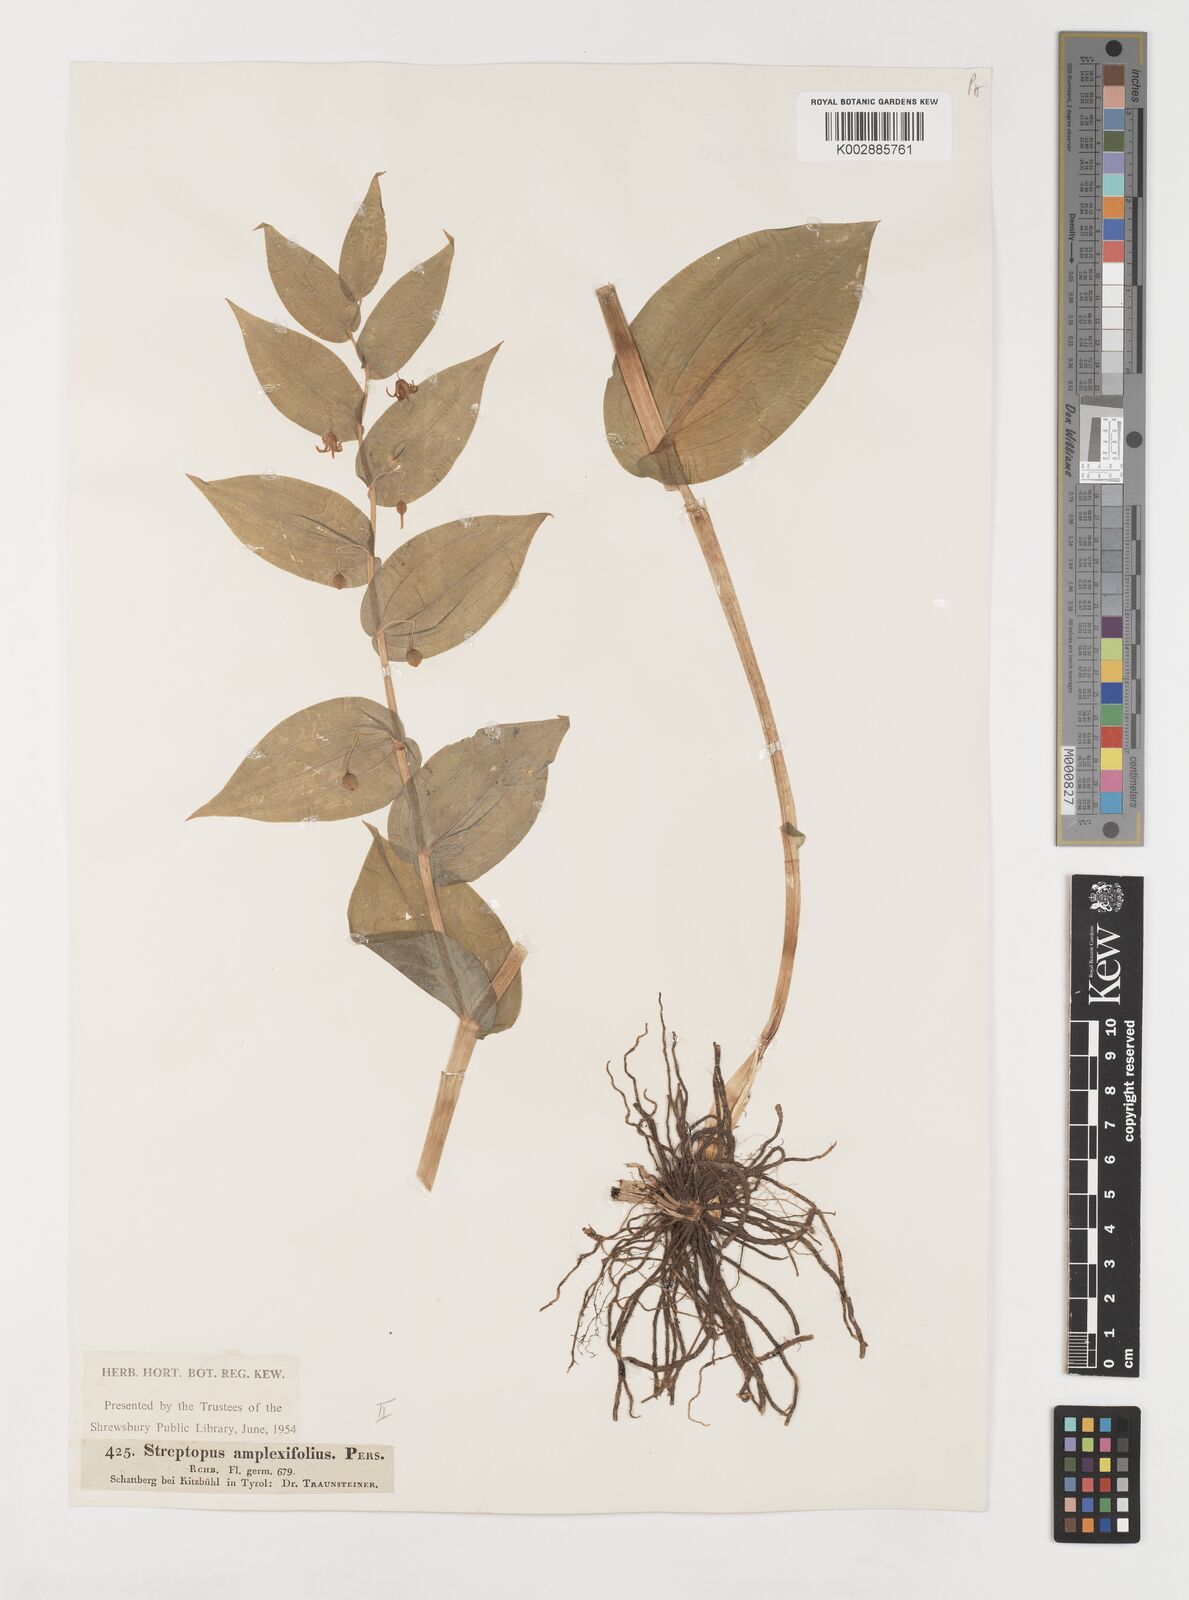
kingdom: Plantae
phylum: Tracheophyta
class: Liliopsida
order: Liliales
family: Liliaceae
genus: Streptopus
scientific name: Streptopus amplexifolius
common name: Clasp twisted stalk
